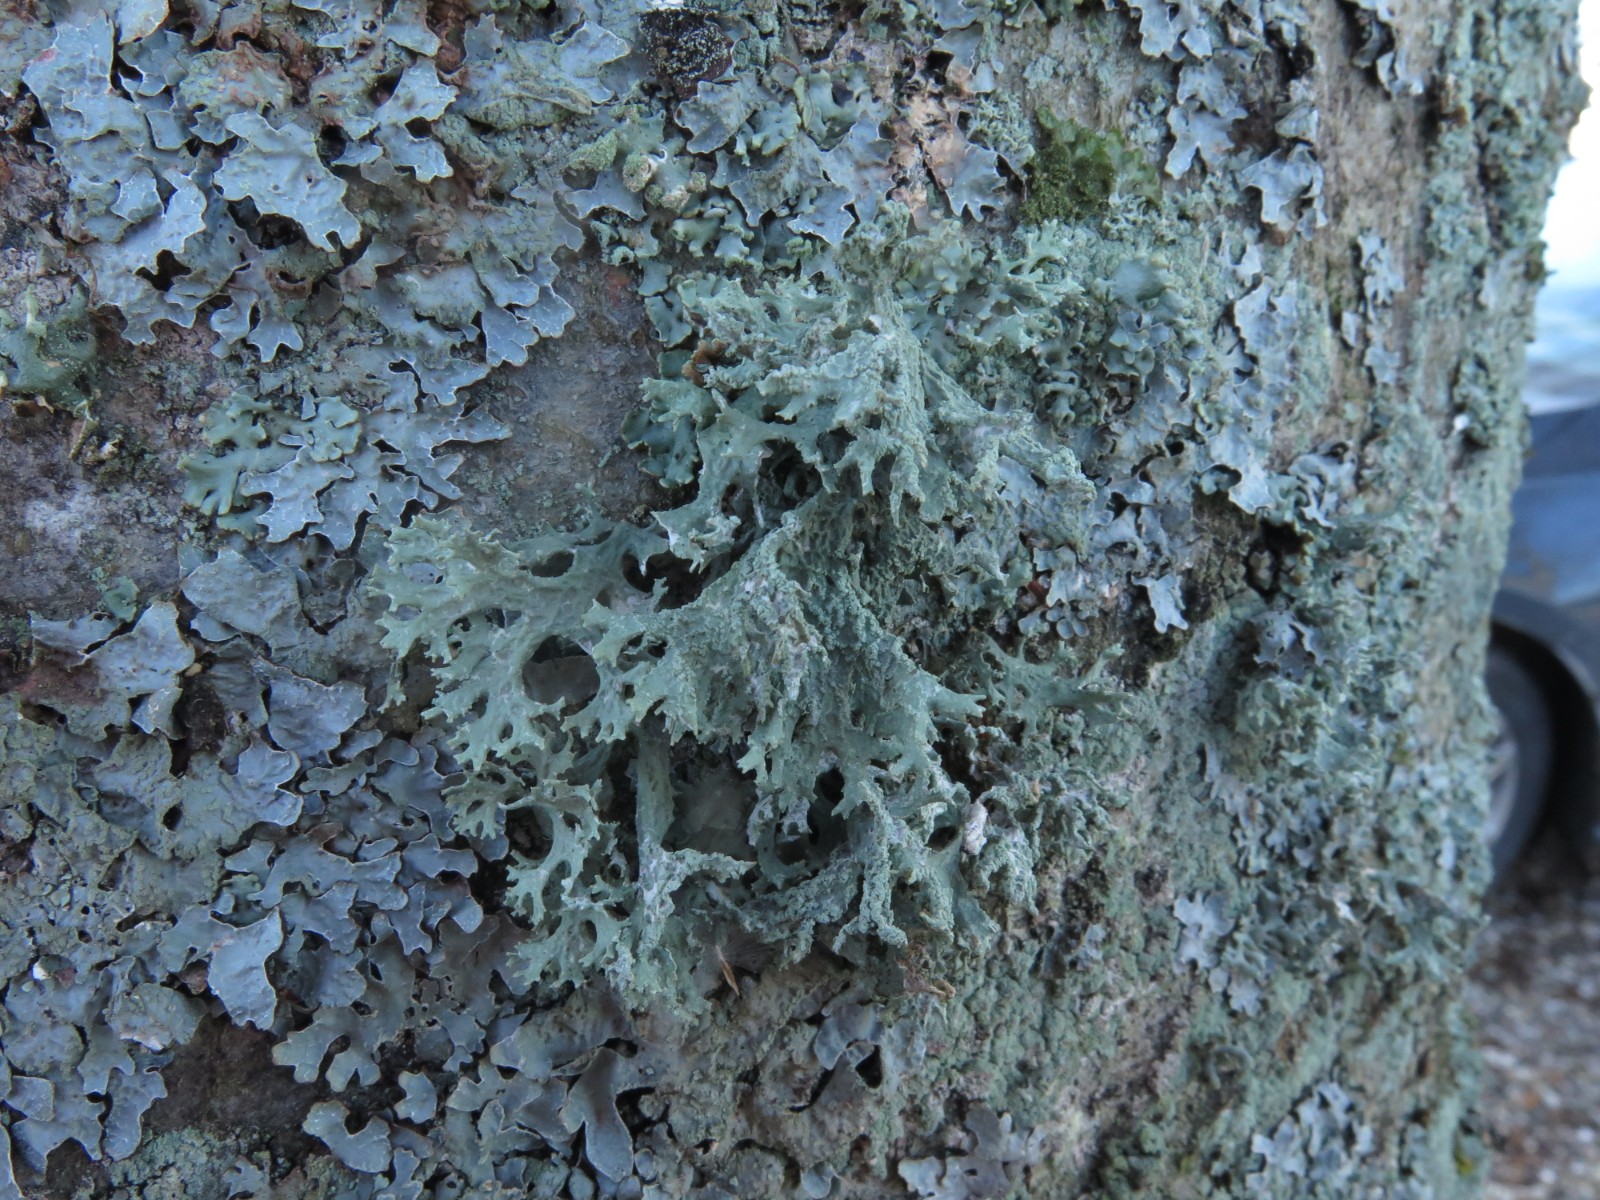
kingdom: Fungi
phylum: Ascomycota
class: Lecanoromycetes
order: Lecanorales
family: Parmeliaceae
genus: Evernia
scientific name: Evernia prunastri
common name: almindelig slåenlav
